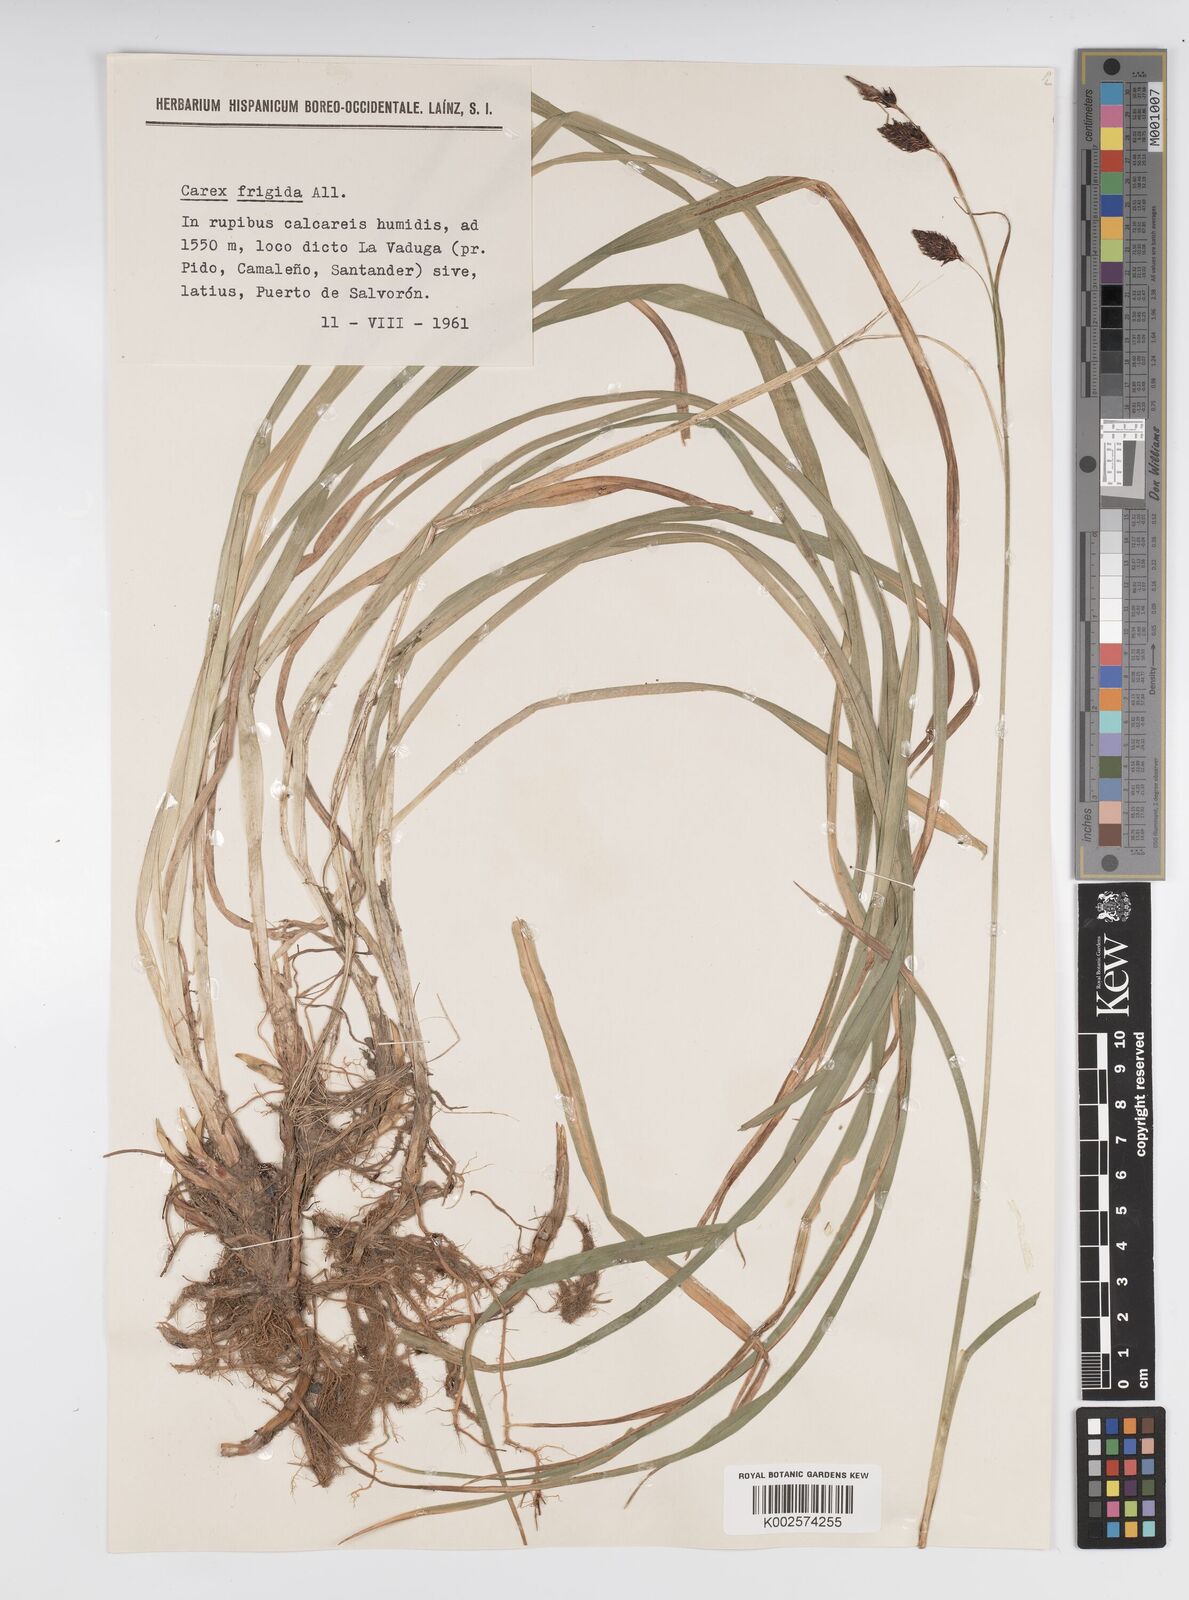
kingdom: Plantae
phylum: Tracheophyta
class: Liliopsida
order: Poales
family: Cyperaceae
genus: Carex
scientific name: Carex frigida
